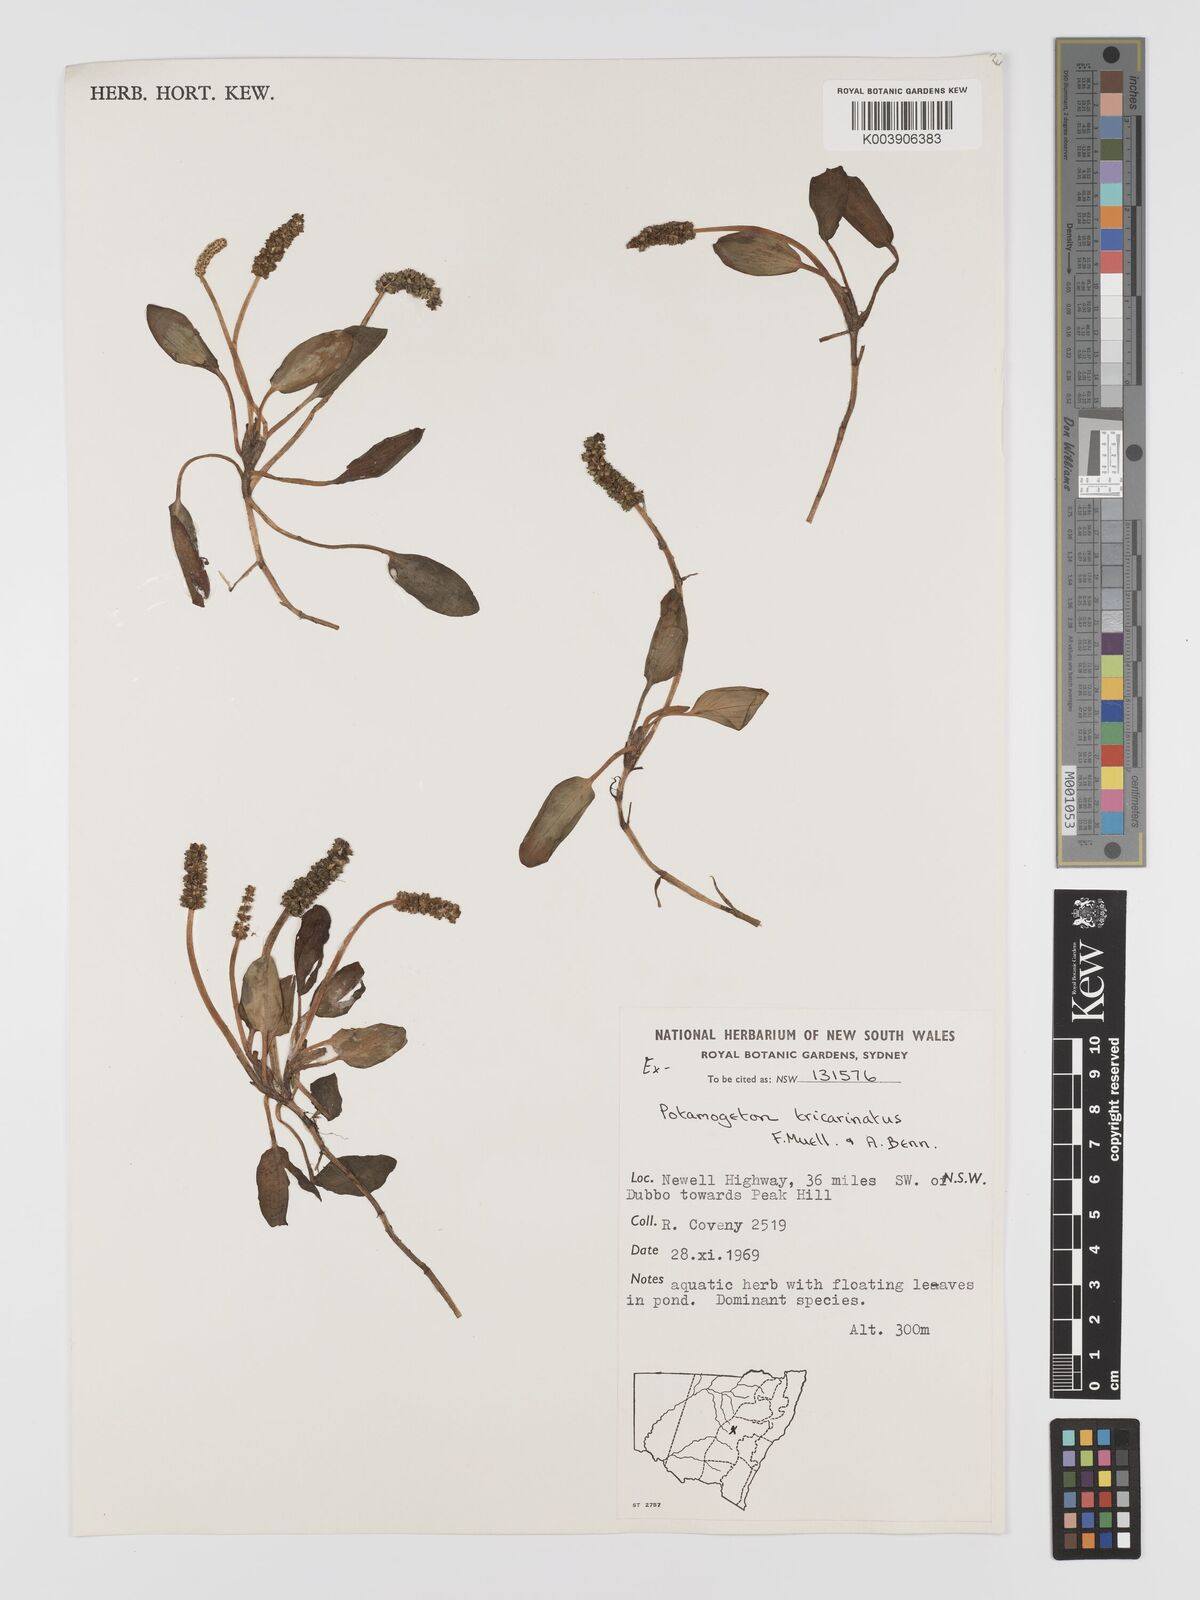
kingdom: Plantae
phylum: Tracheophyta
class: Liliopsida
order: Alismatales
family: Potamogetonaceae
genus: Potamogeton
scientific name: Potamogeton tricarinatus
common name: Pondweed
